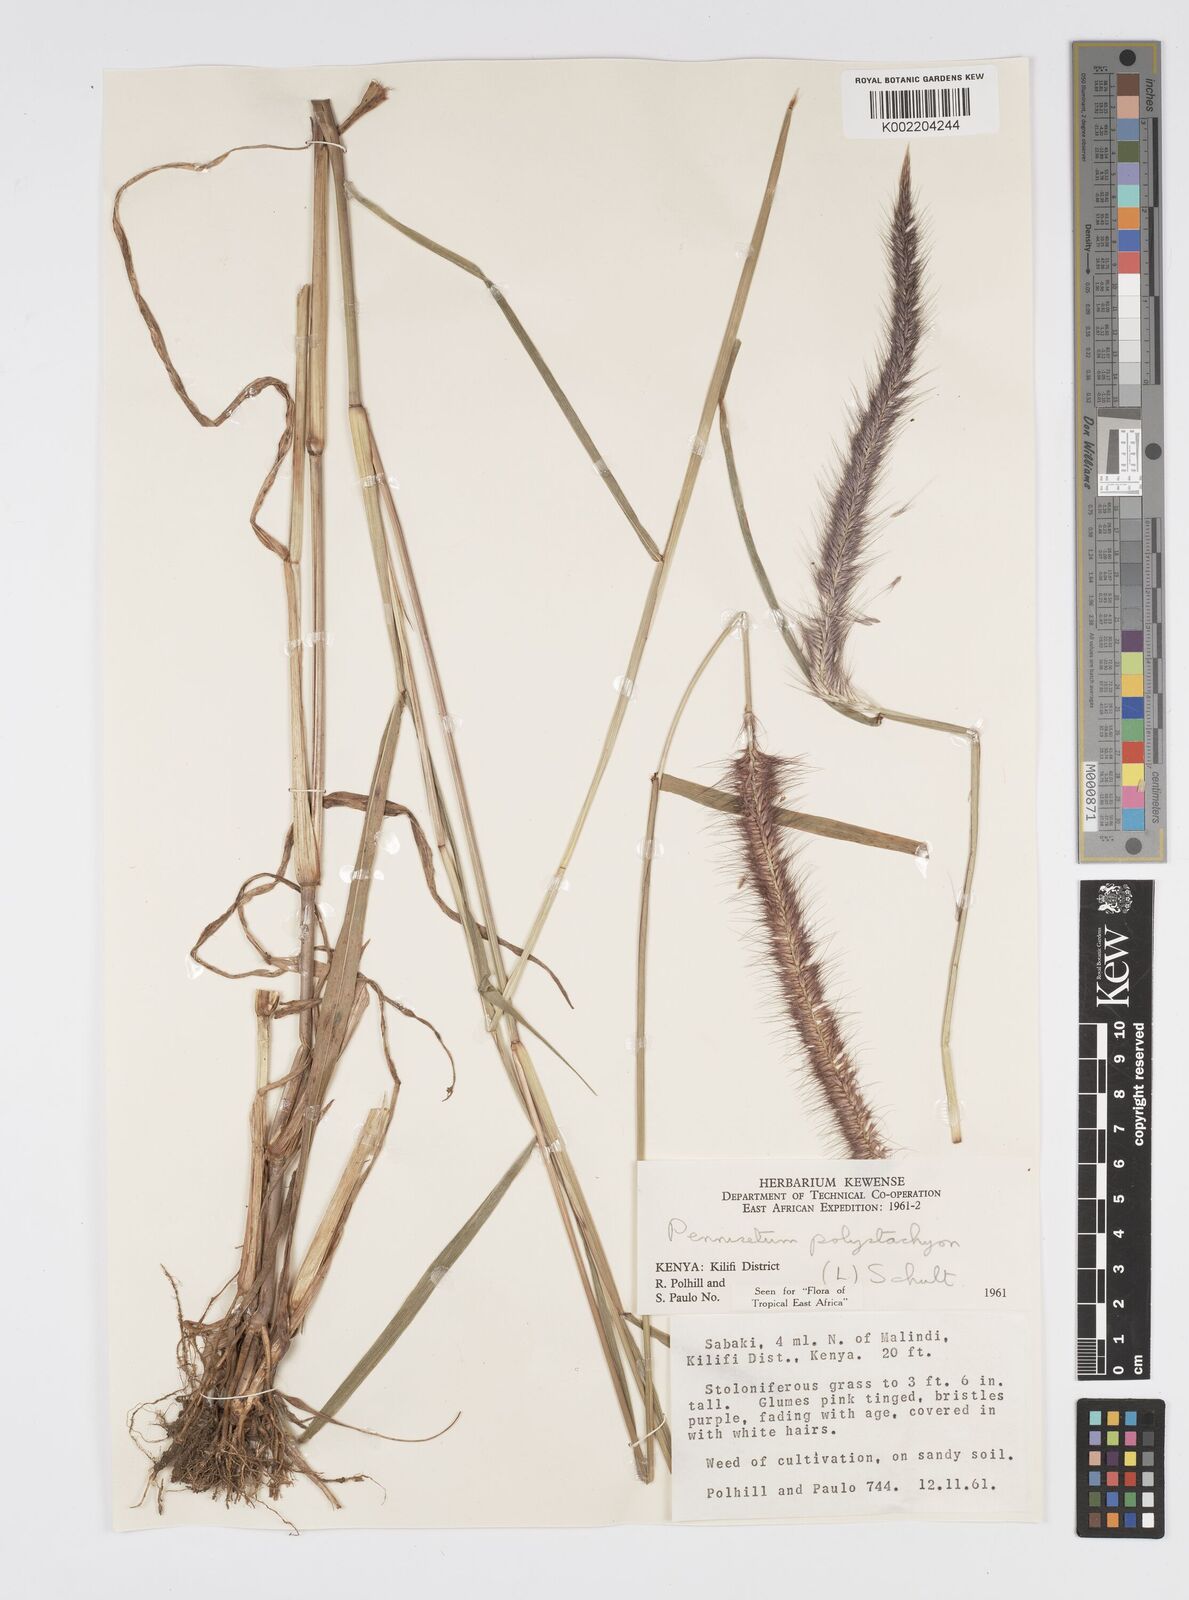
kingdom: Plantae
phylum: Tracheophyta
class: Liliopsida
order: Poales
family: Poaceae
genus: Setaria
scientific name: Setaria parviflora
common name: Knotroot bristle-grass
